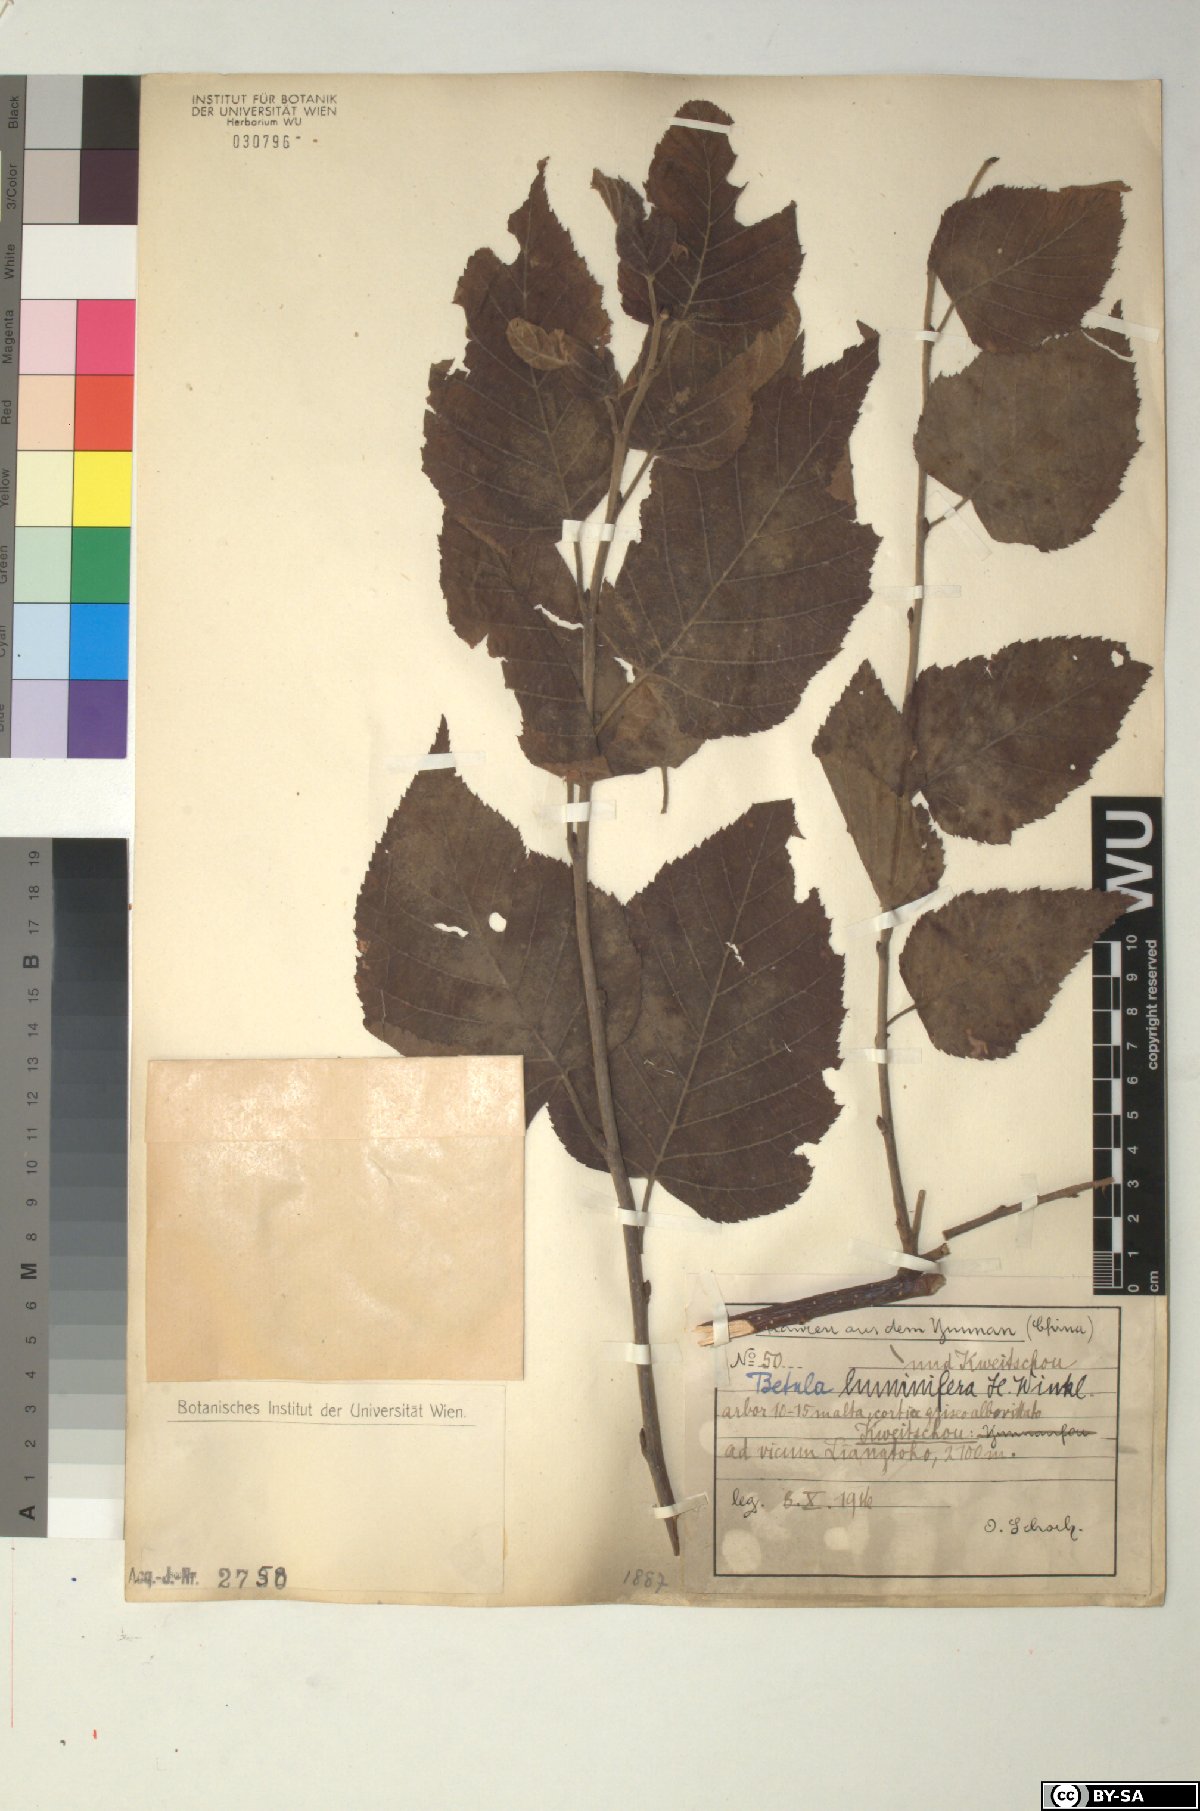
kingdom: Plantae
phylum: Tracheophyta
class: Magnoliopsida
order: Fagales
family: Betulaceae
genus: Betula
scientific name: Betula luminifera
